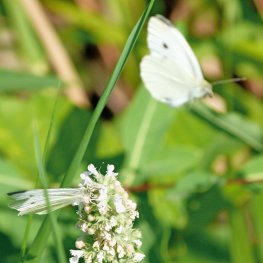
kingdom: Animalia
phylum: Arthropoda
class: Insecta
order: Lepidoptera
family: Pieridae
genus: Pieris
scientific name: Pieris rapae
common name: Cabbage White
